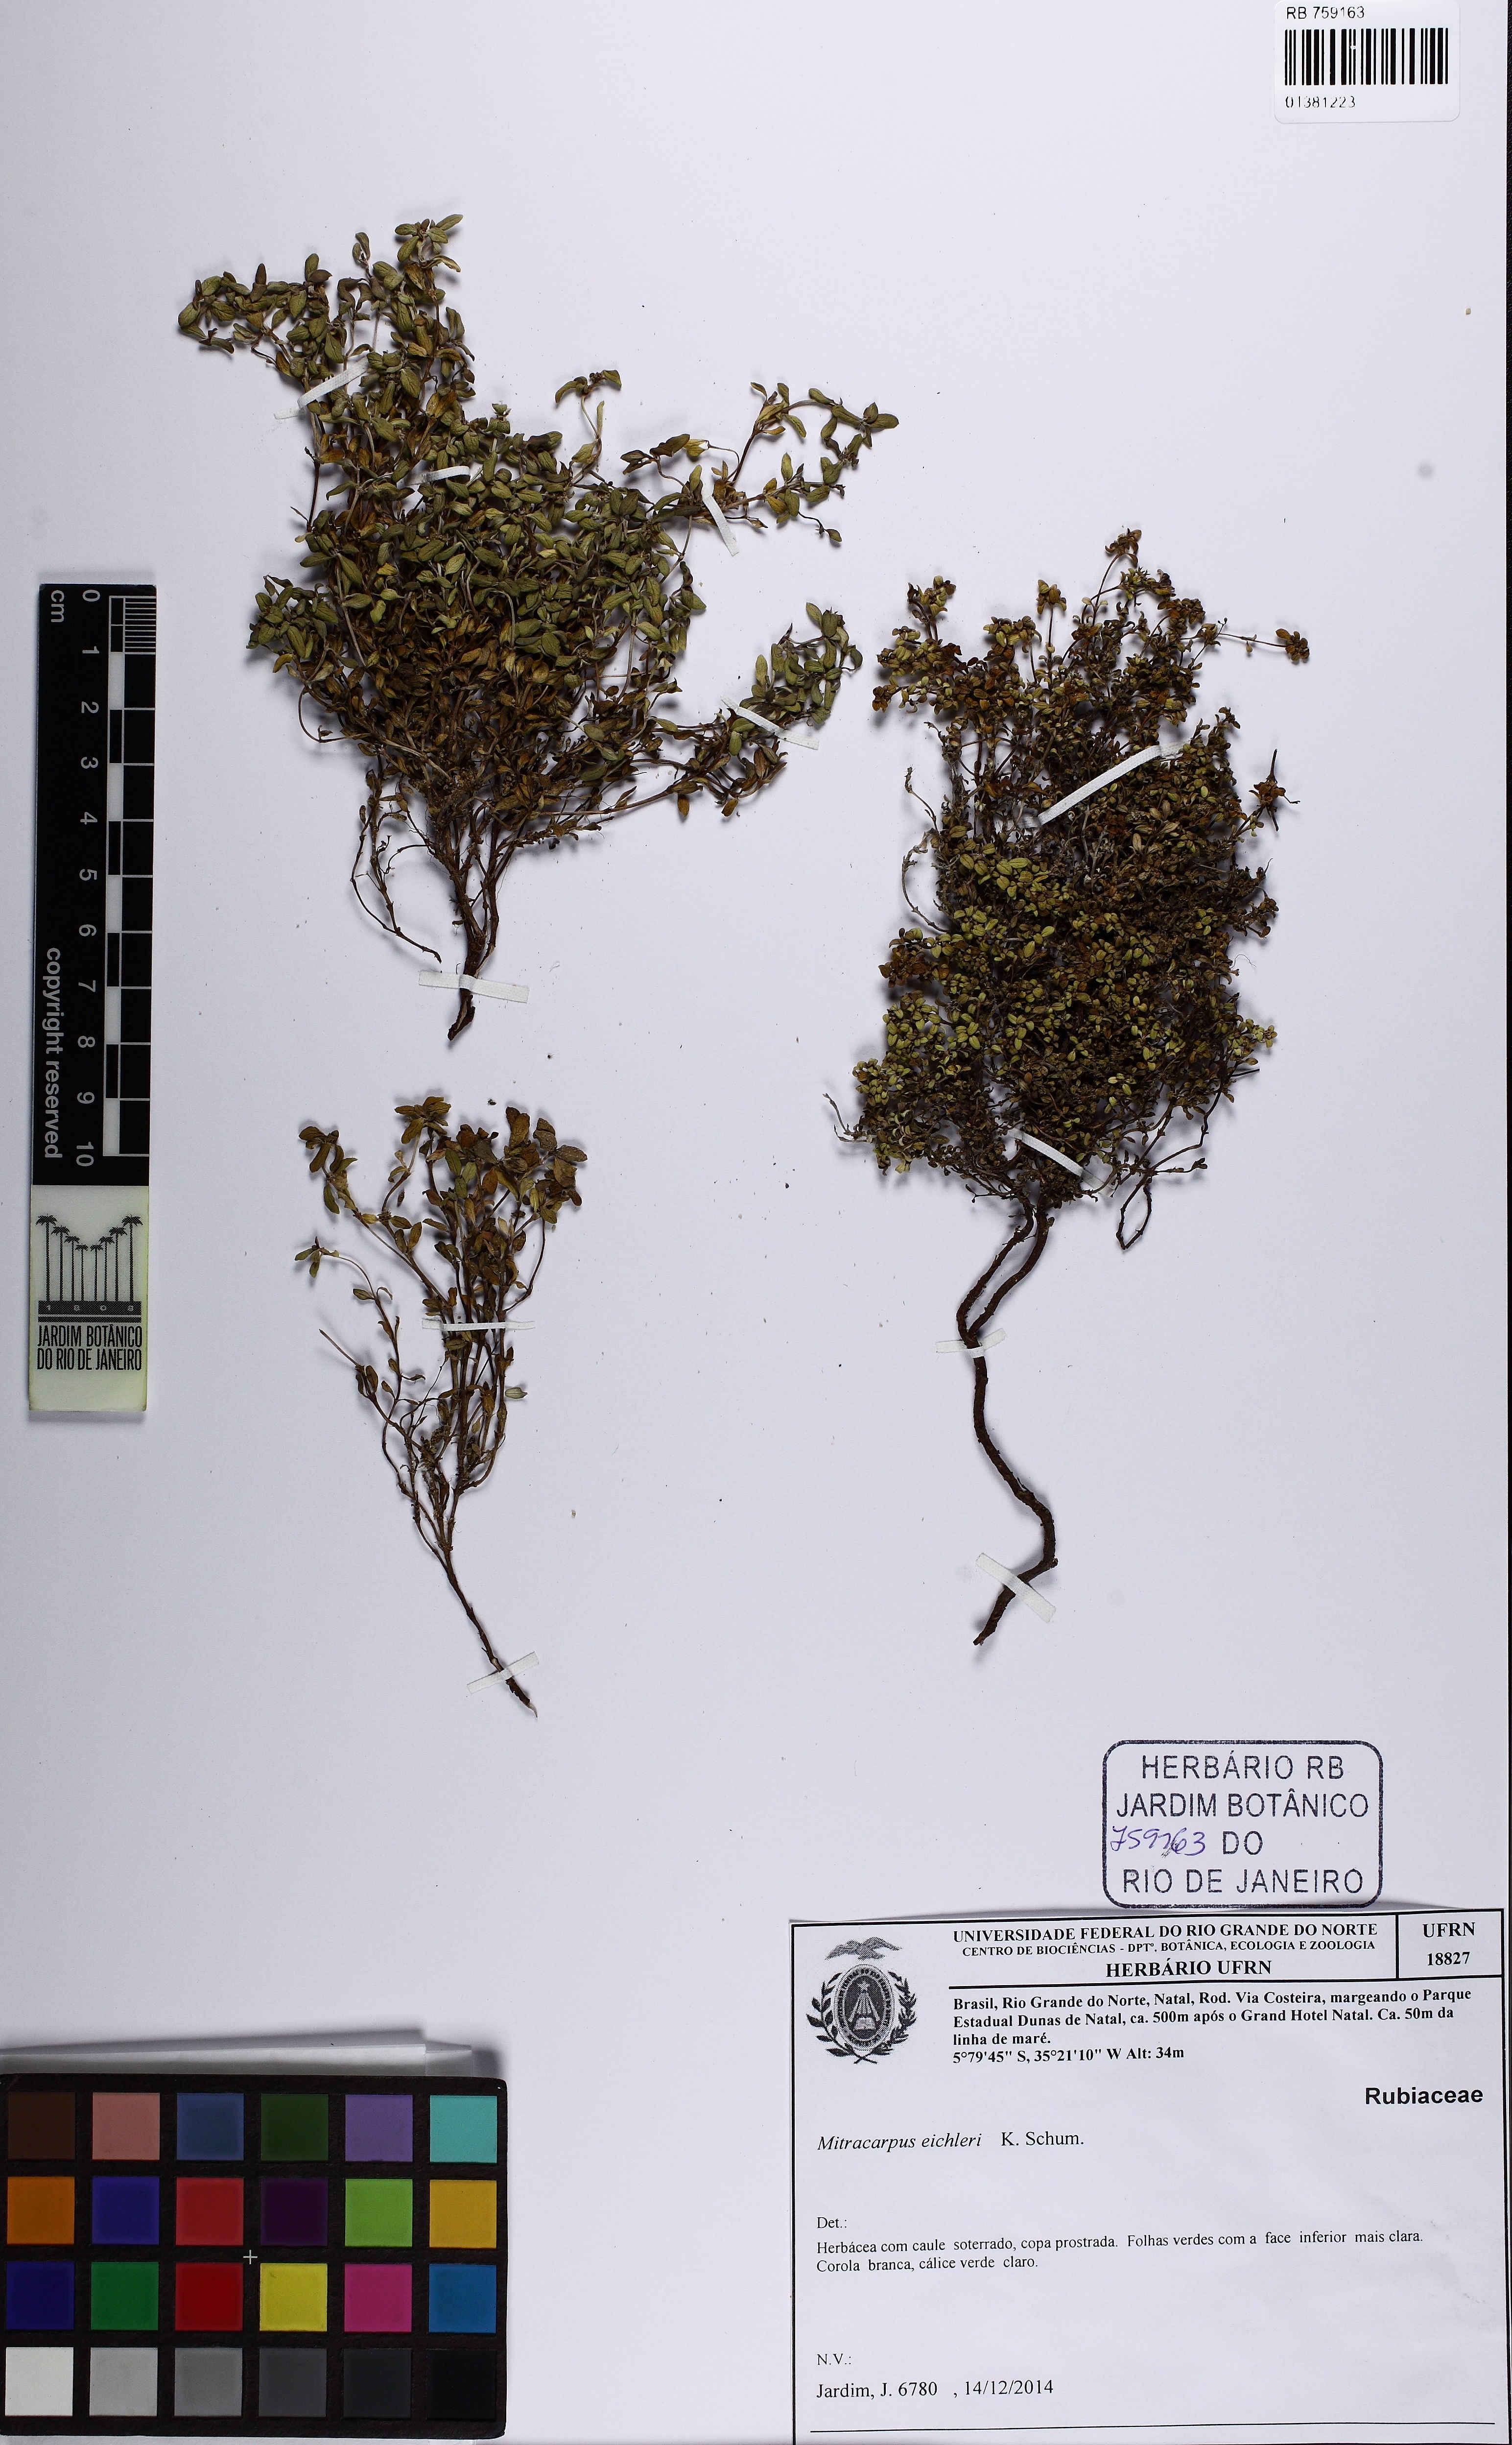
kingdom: Plantae
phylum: Tracheophyta
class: Magnoliopsida
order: Gentianales
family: Rubiaceae
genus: Mitracarpus
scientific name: Mitracarpus eichleri
